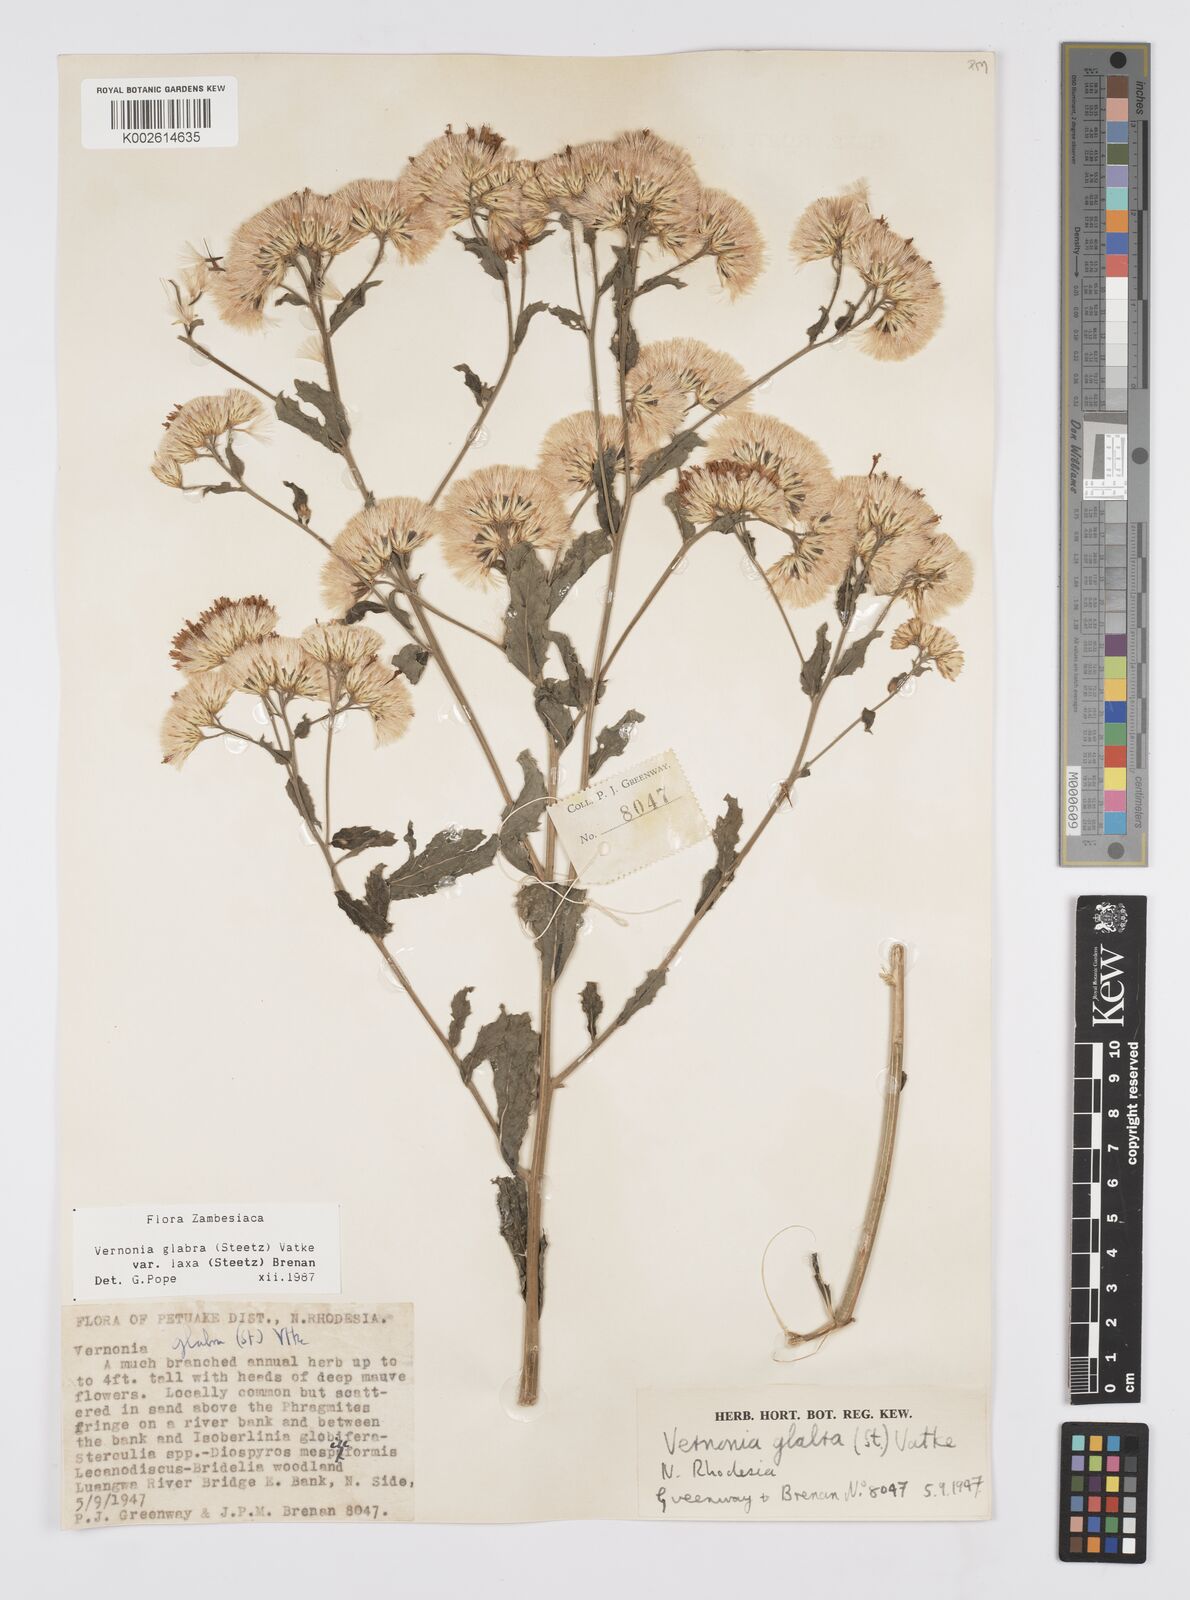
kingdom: Plantae
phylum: Tracheophyta
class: Magnoliopsida
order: Asterales
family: Asteraceae
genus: Linzia
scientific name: Linzia glabra
